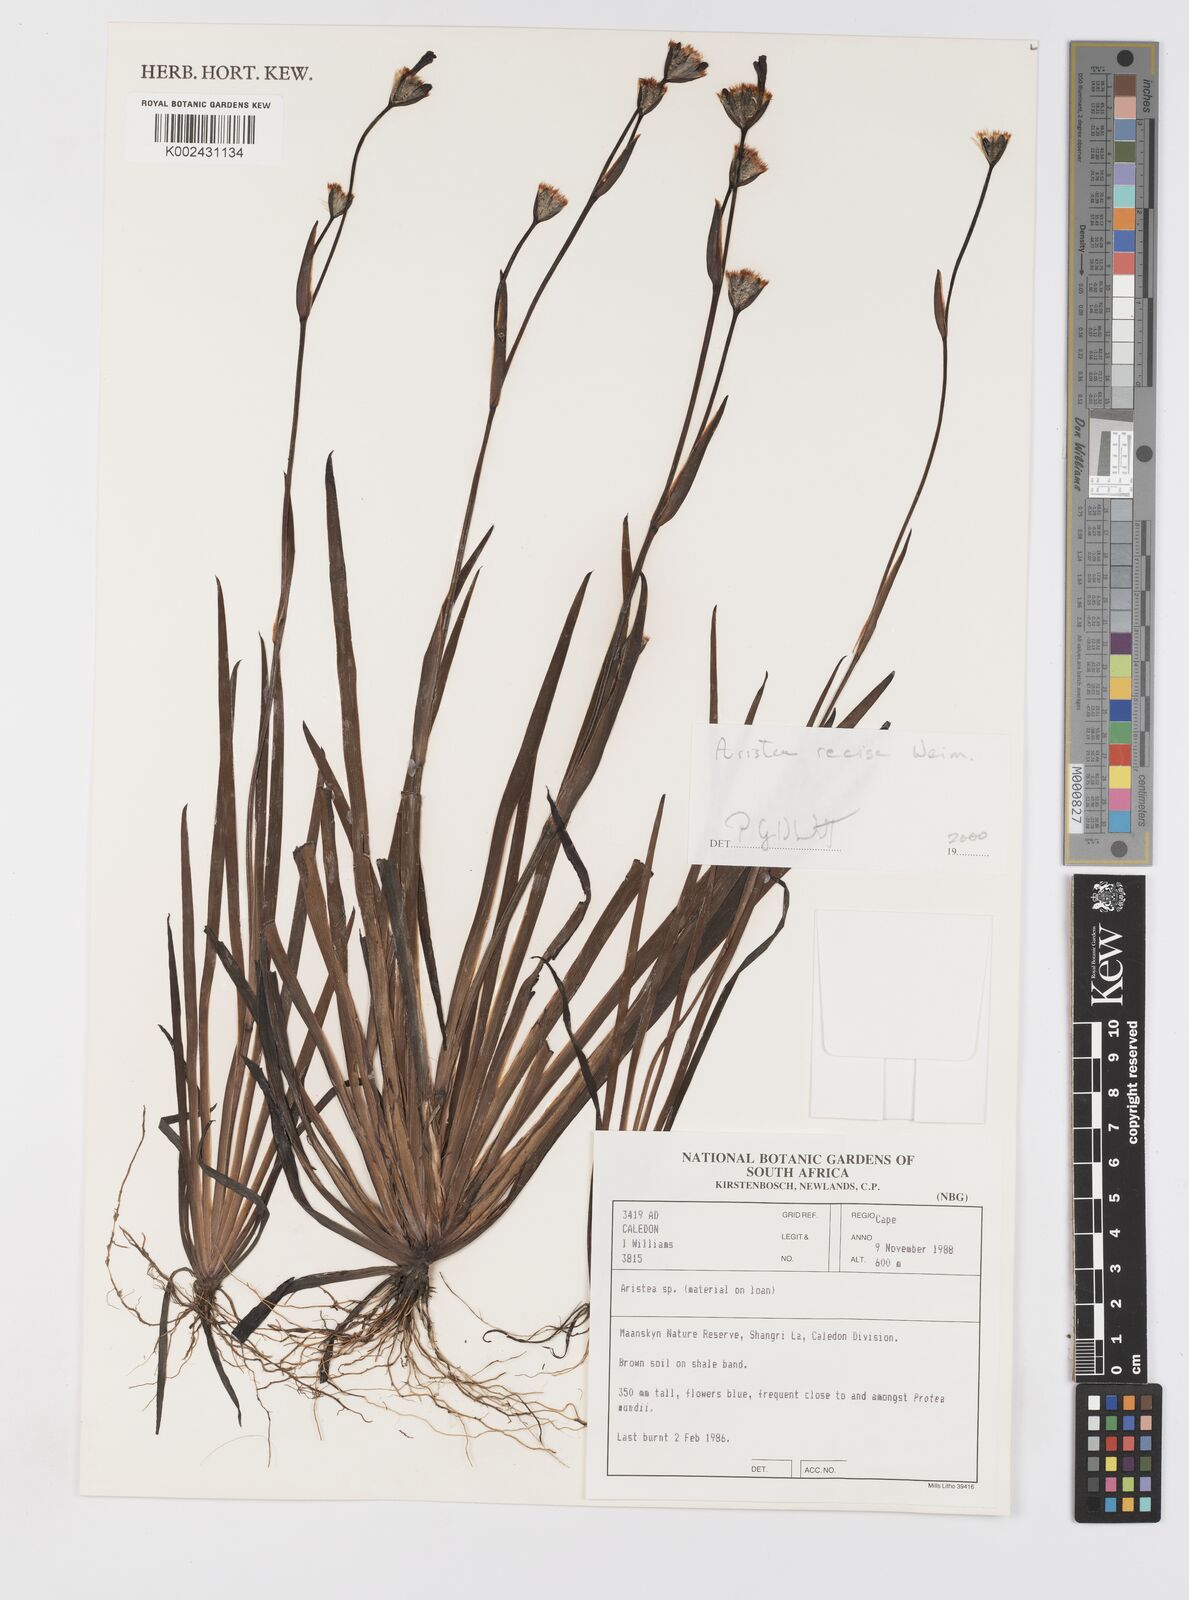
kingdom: Plantae
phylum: Tracheophyta
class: Liliopsida
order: Asparagales
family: Iridaceae
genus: Aristea
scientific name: Aristea recisa
